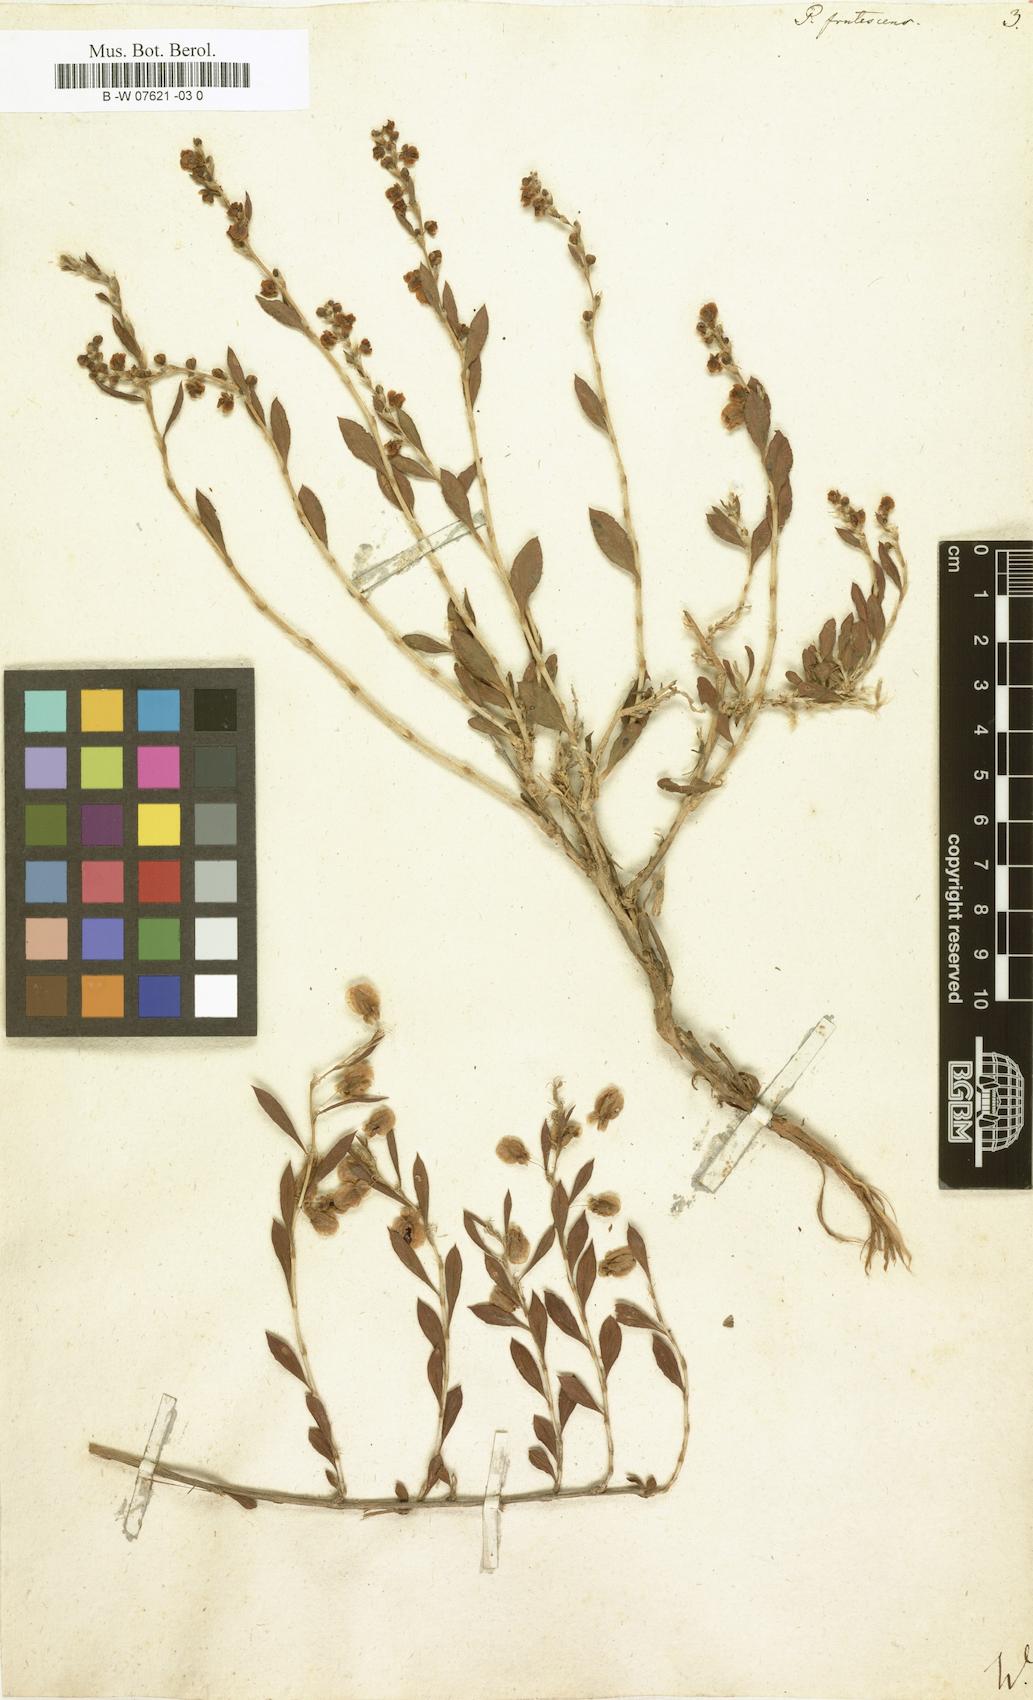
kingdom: Plantae
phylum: Tracheophyta
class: Magnoliopsida
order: Caryophyllales
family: Polygonaceae
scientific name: Polygonaceae
